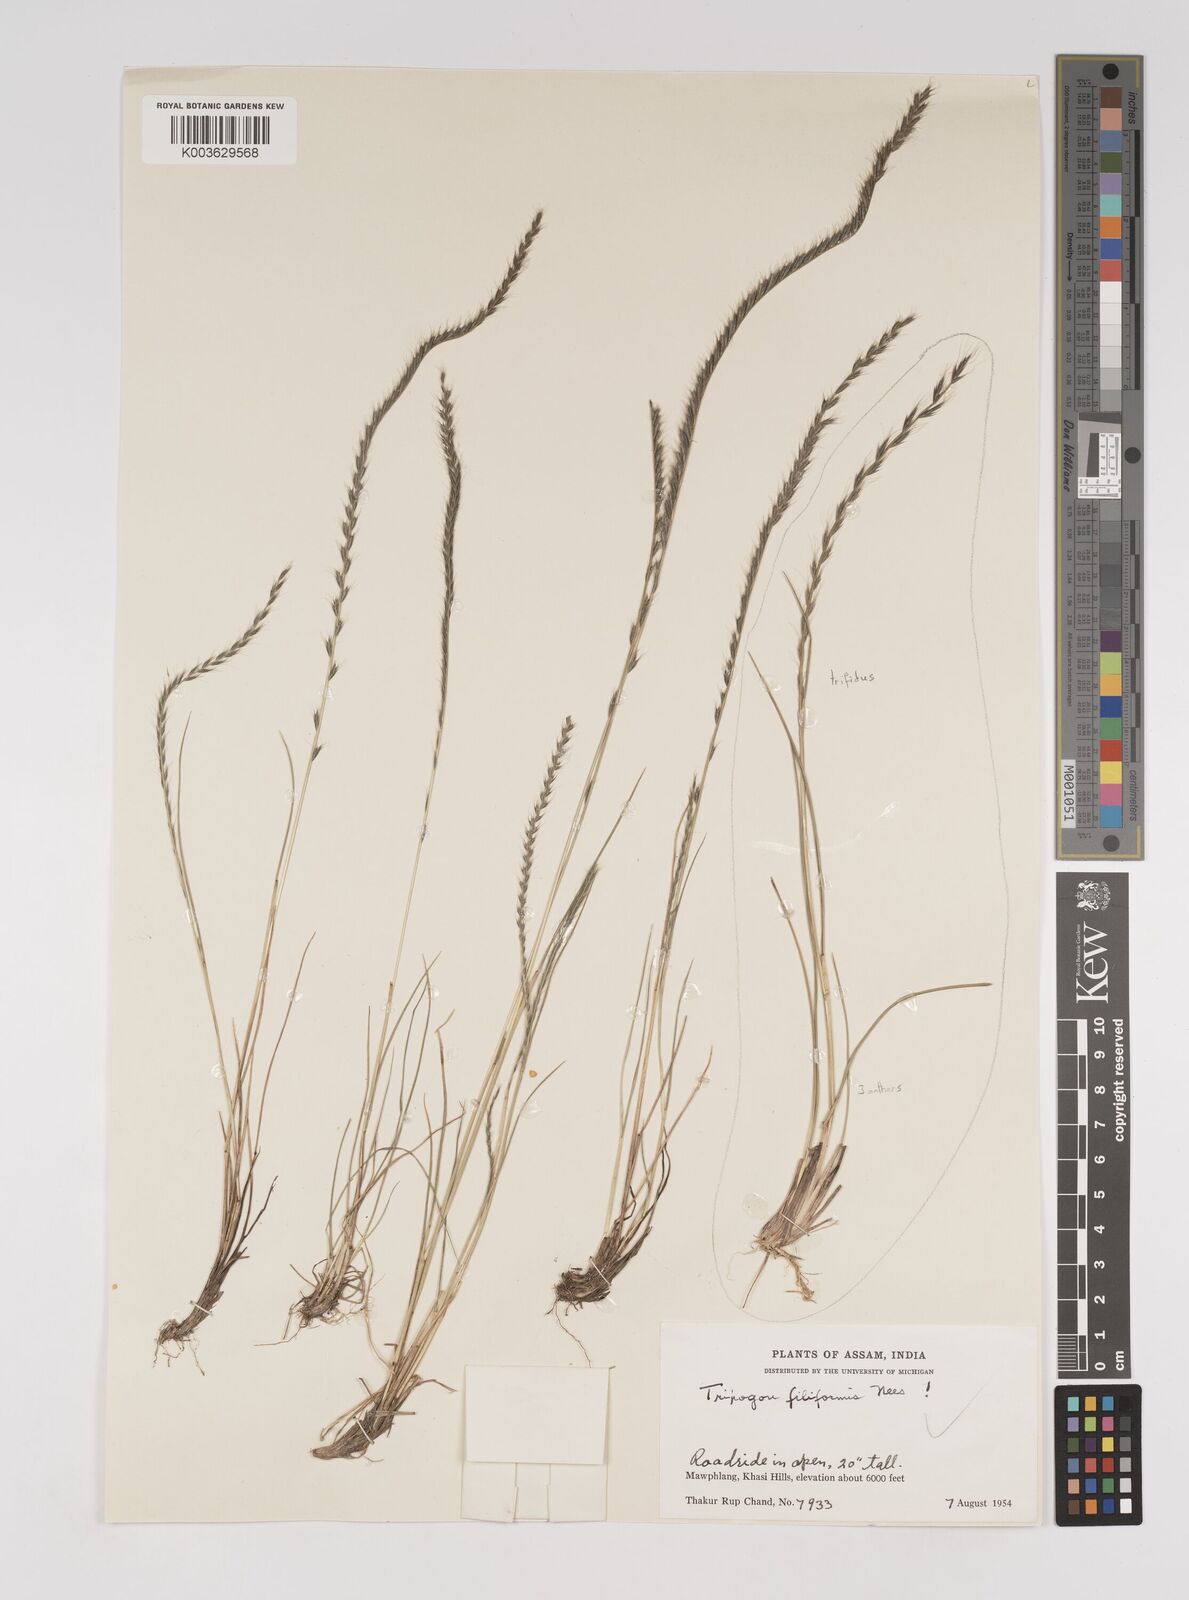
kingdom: Plantae
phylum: Tracheophyta
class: Liliopsida
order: Poales
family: Poaceae
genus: Tripogon
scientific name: Tripogon filiformis
